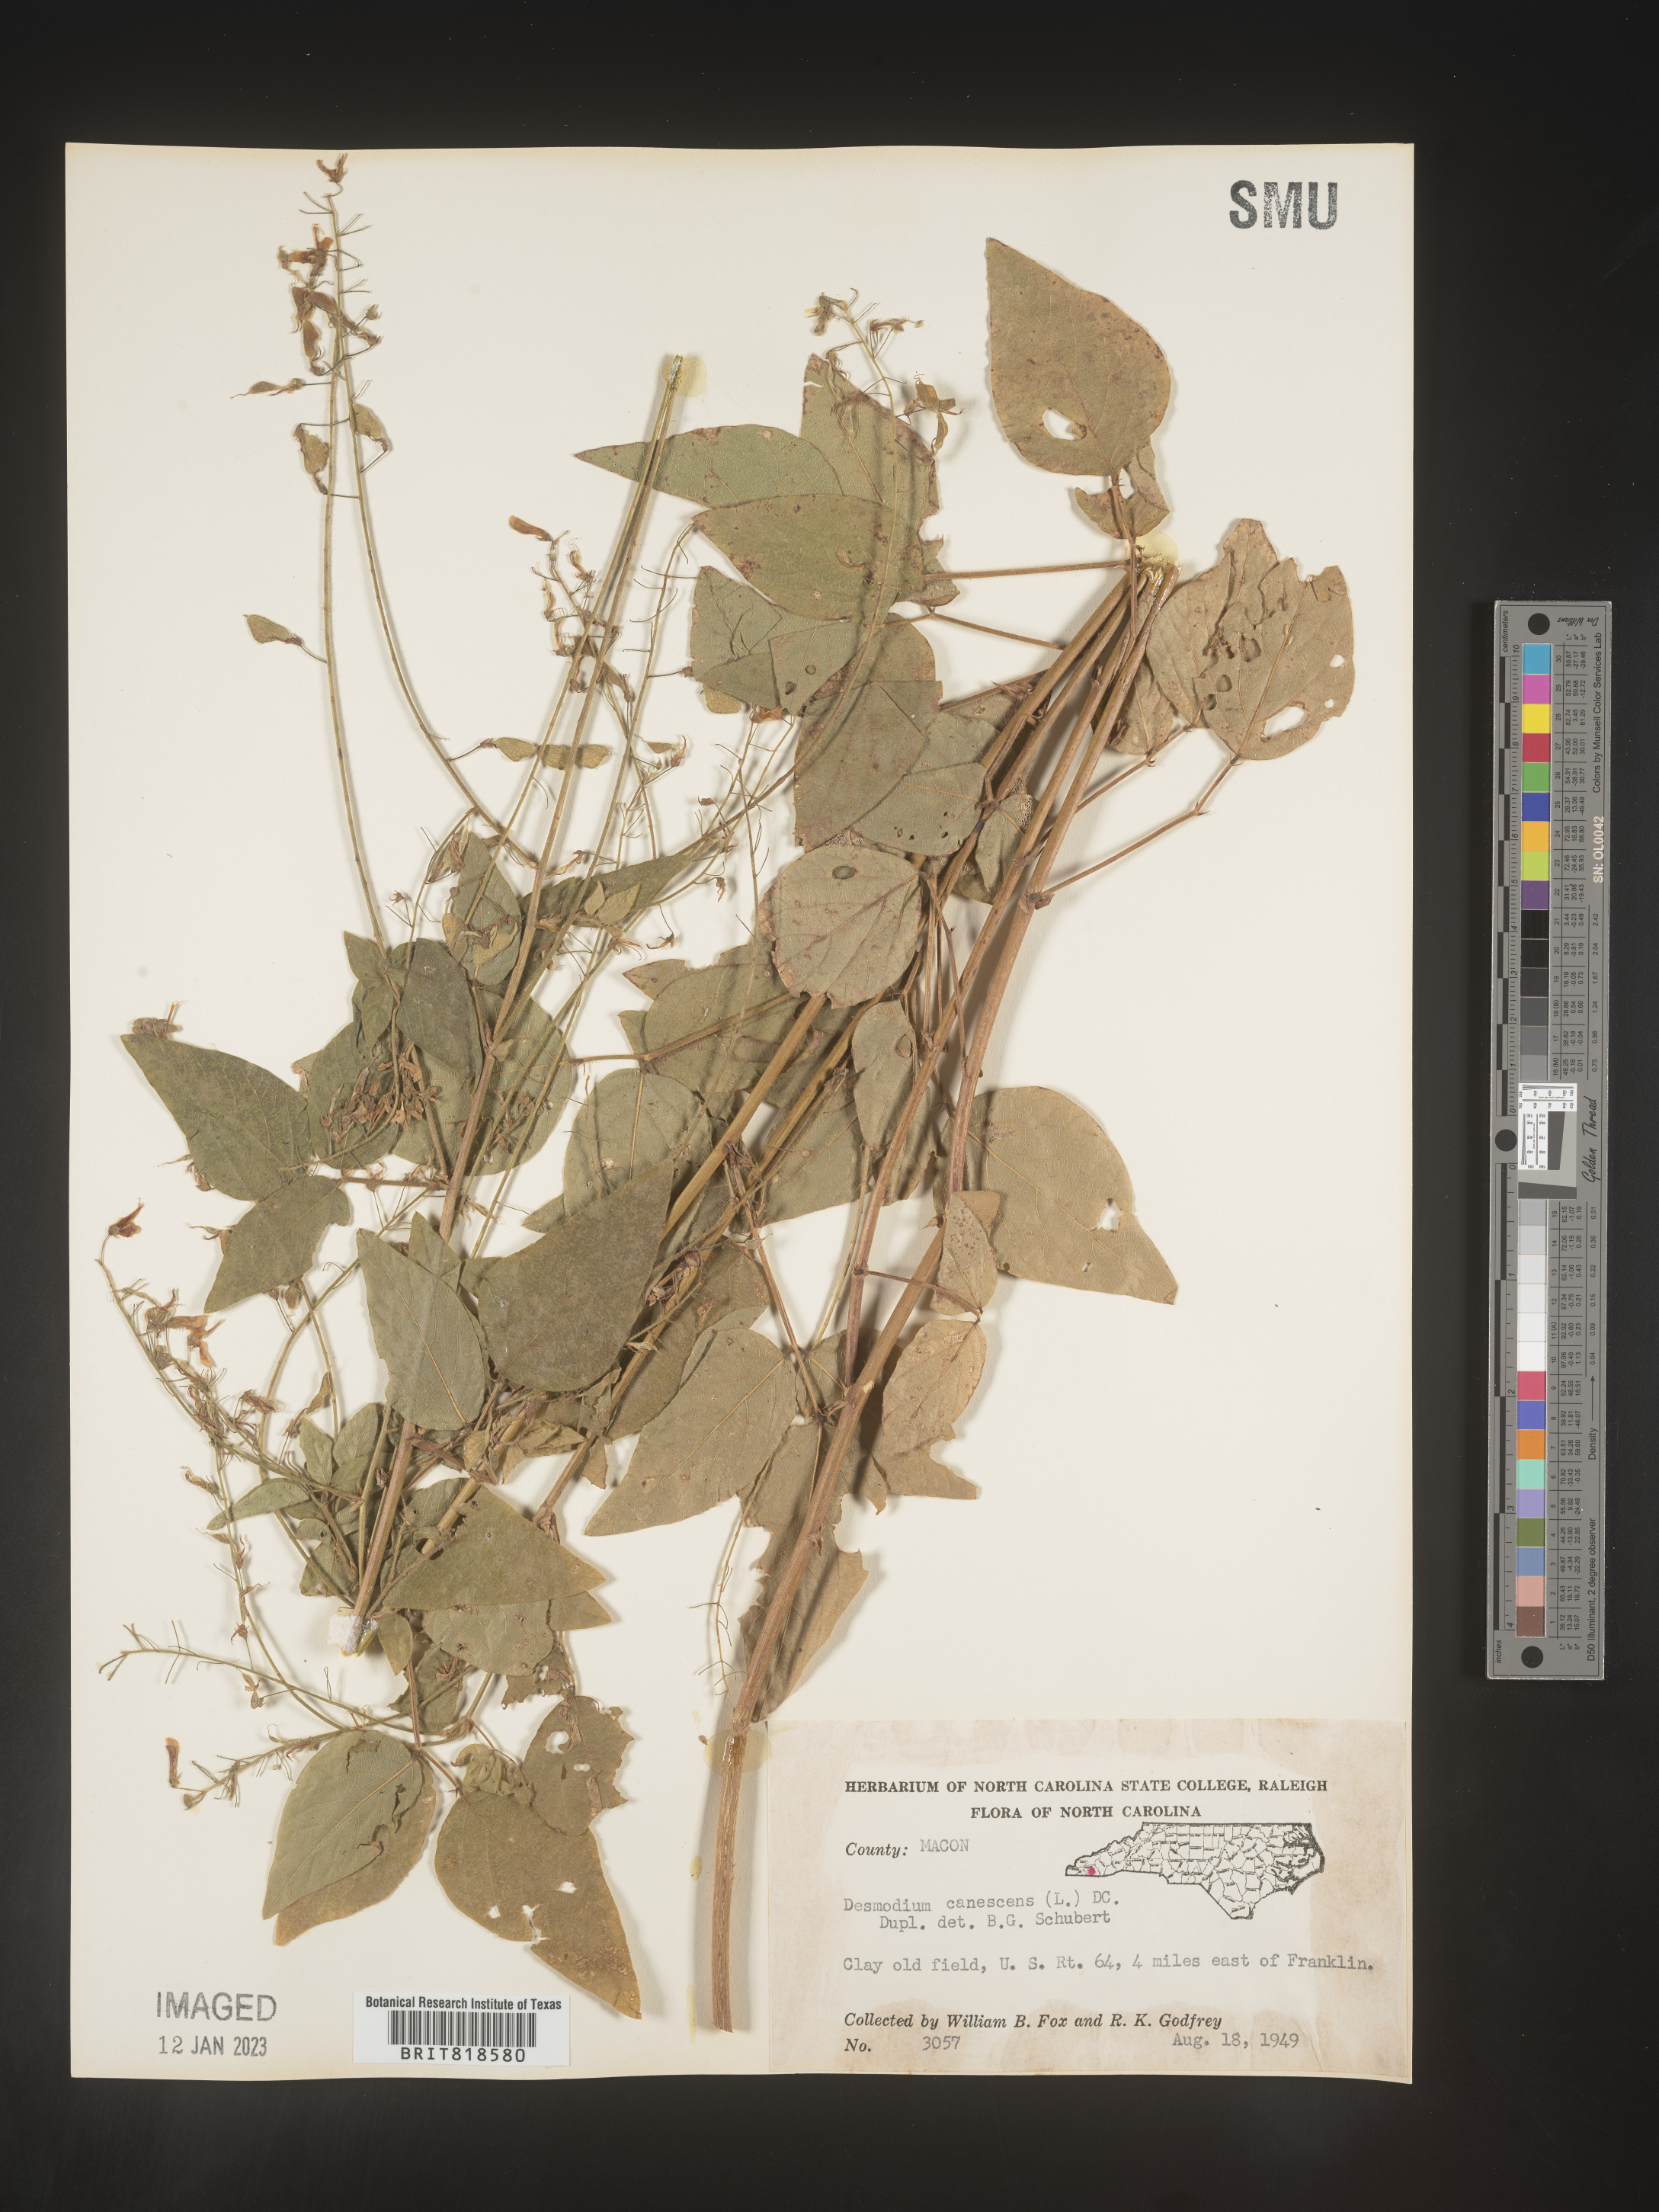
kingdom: Plantae
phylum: Tracheophyta
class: Magnoliopsida
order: Fabales
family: Fabaceae
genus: Desmodium
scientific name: Desmodium canescens
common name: Hoary tick-clover
